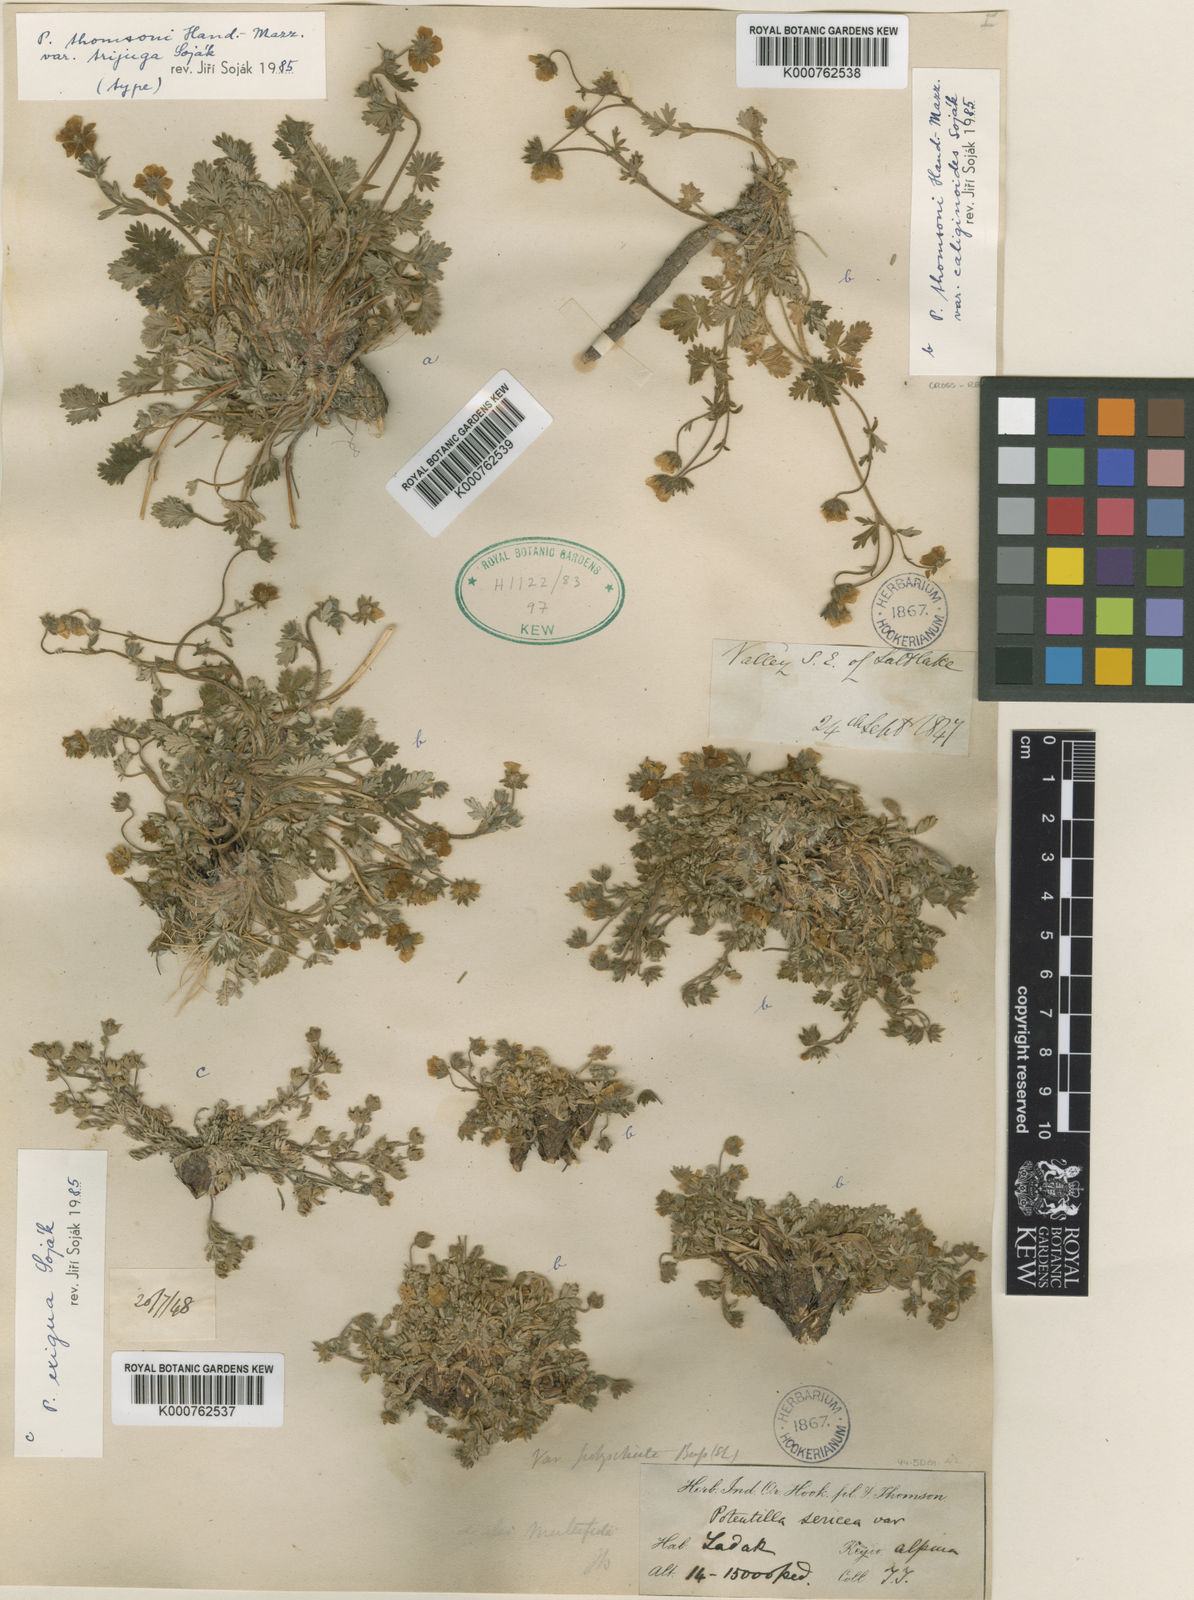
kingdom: Plantae
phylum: Tracheophyta
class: Magnoliopsida
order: Rosales
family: Rosaceae
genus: Potentilla
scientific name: Potentilla pamirica
